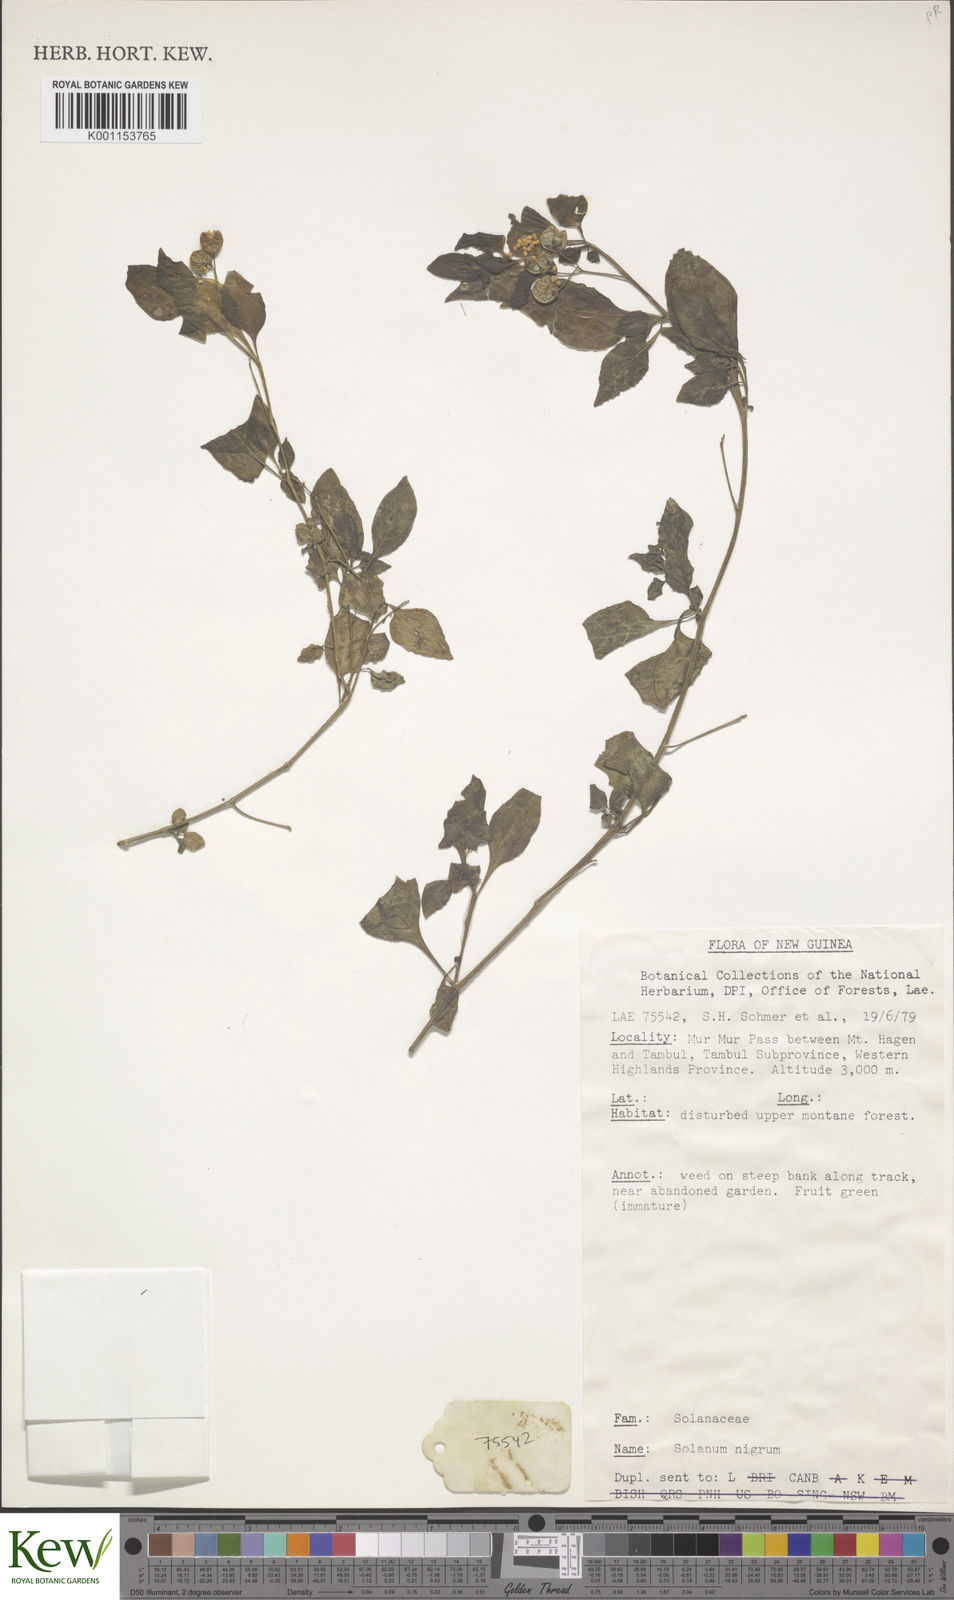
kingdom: Plantae
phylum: Tracheophyta
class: Magnoliopsida
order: Solanales
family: Solanaceae
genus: Solanum
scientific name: Solanum nigrum
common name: Black nightshade
